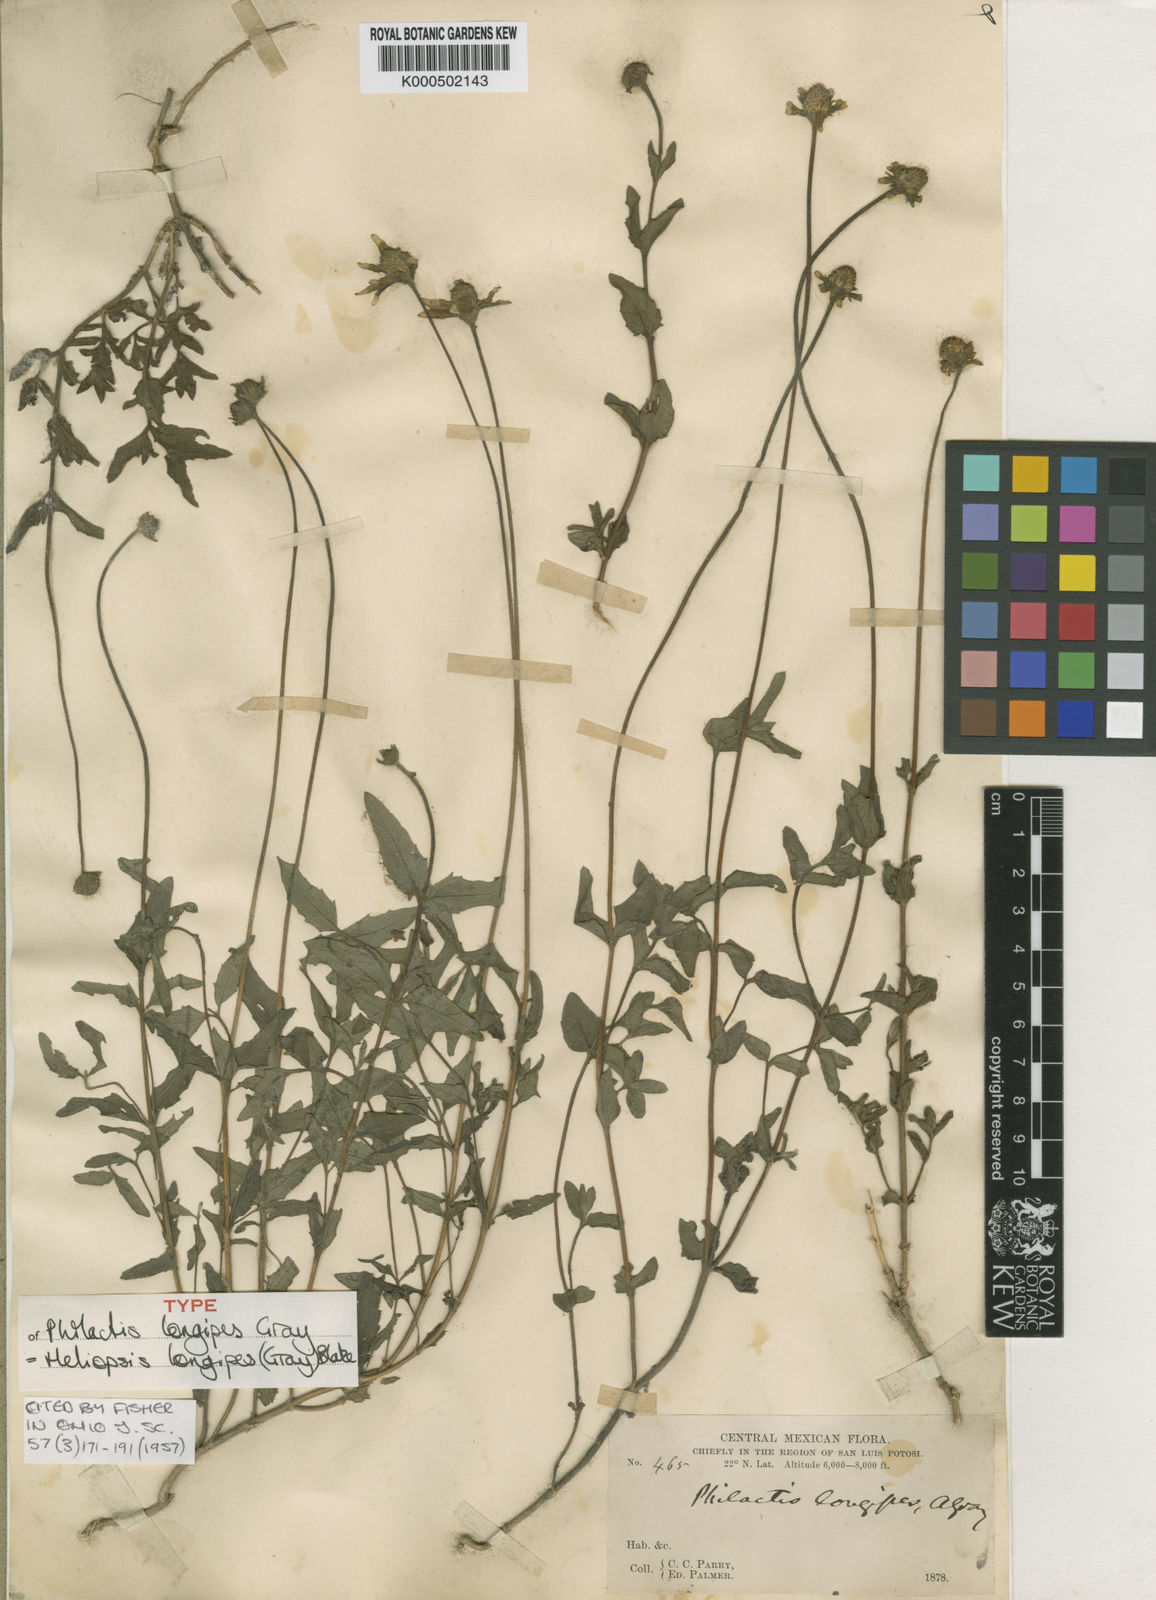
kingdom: Plantae
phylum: Tracheophyta
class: Magnoliopsida
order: Asterales
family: Asteraceae
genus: Heliopsis
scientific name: Heliopsis longipes
